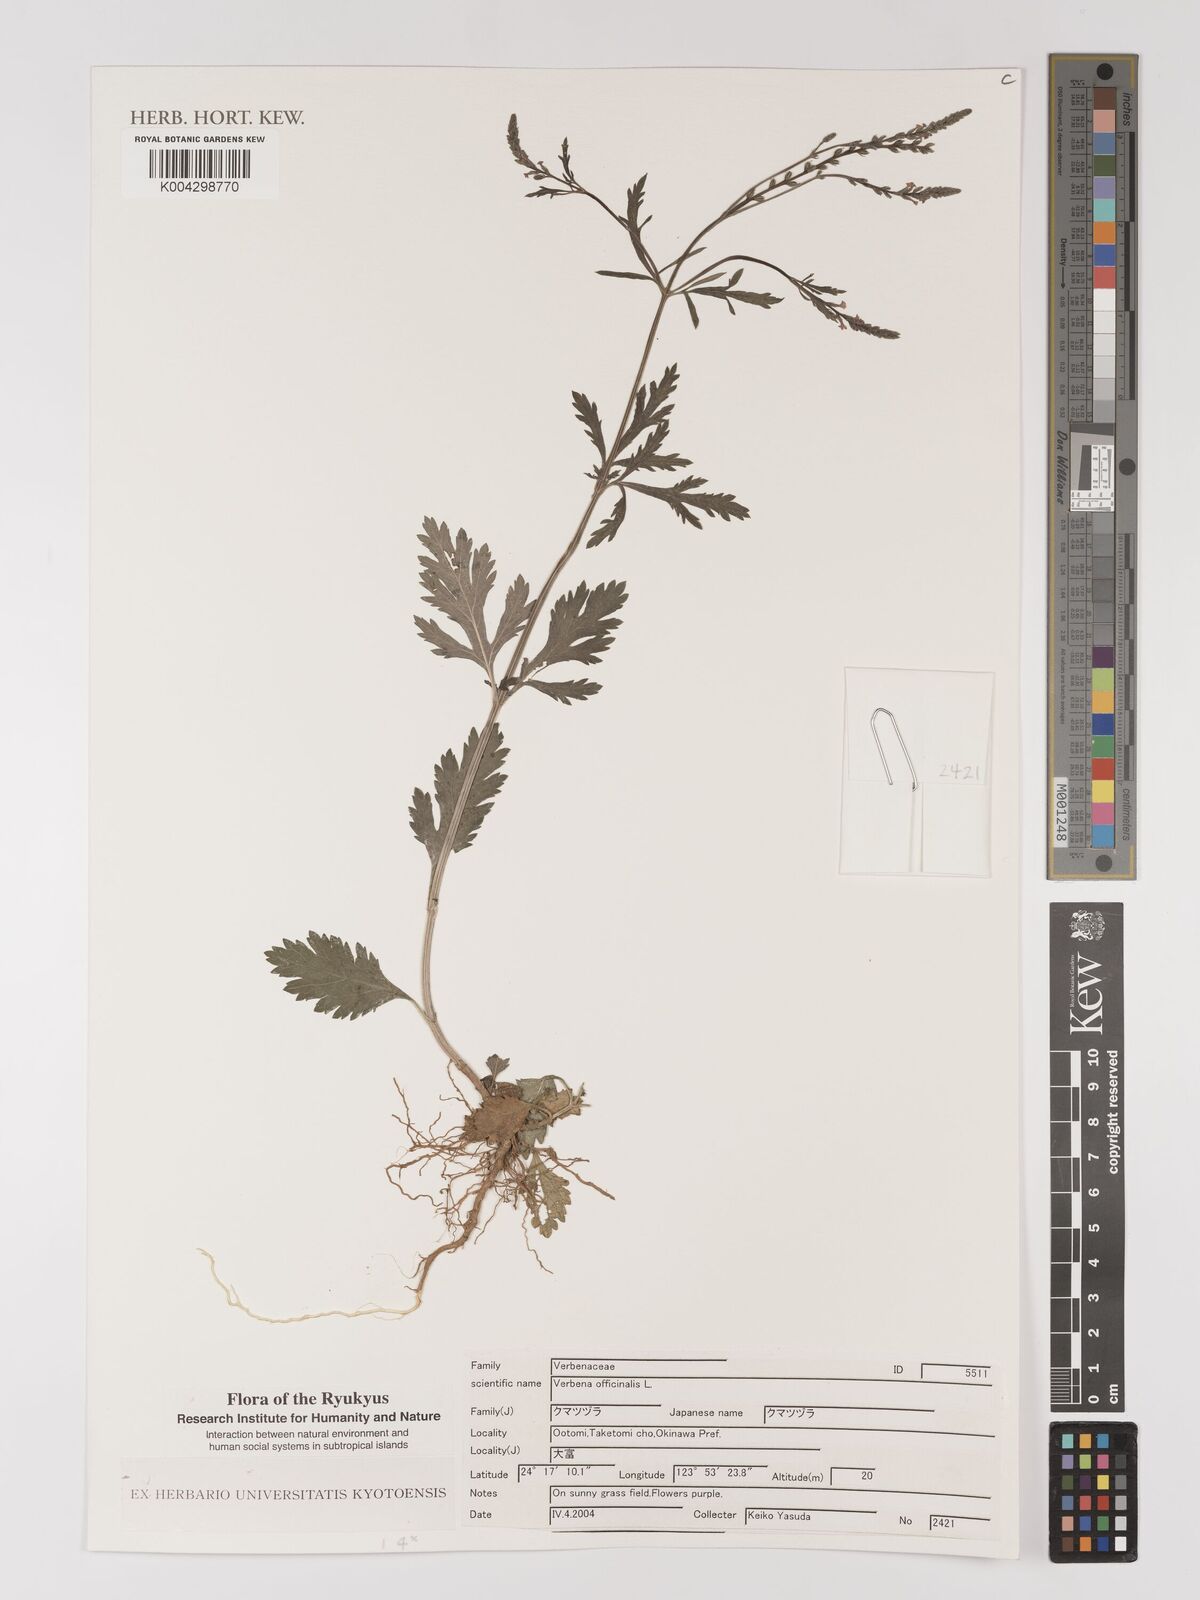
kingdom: Plantae
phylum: Tracheophyta
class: Magnoliopsida
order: Lamiales
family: Verbenaceae
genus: Verbena
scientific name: Verbena officinalis
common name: Vervain
